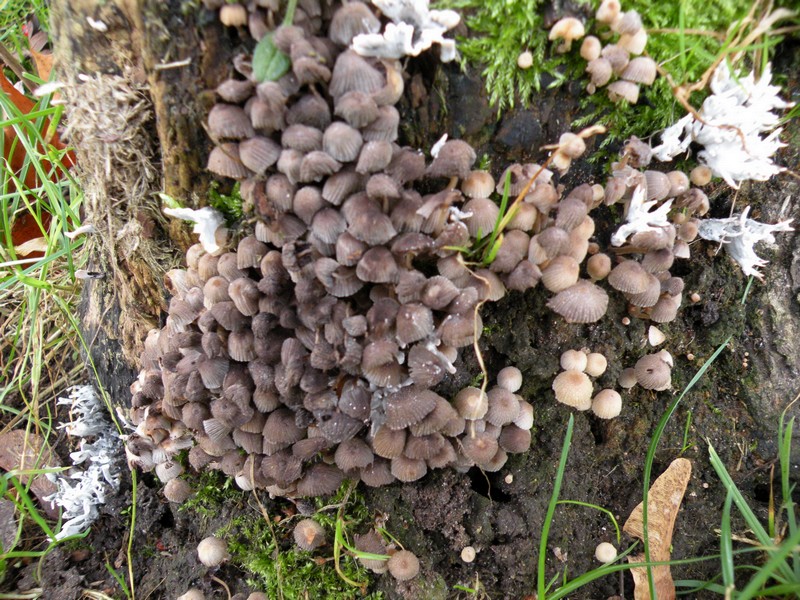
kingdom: Fungi
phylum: Basidiomycota
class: Agaricomycetes
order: Agaricales
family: Psathyrellaceae
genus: Coprinellus
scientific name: Coprinellus disseminatus
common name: bredsået blækhat
